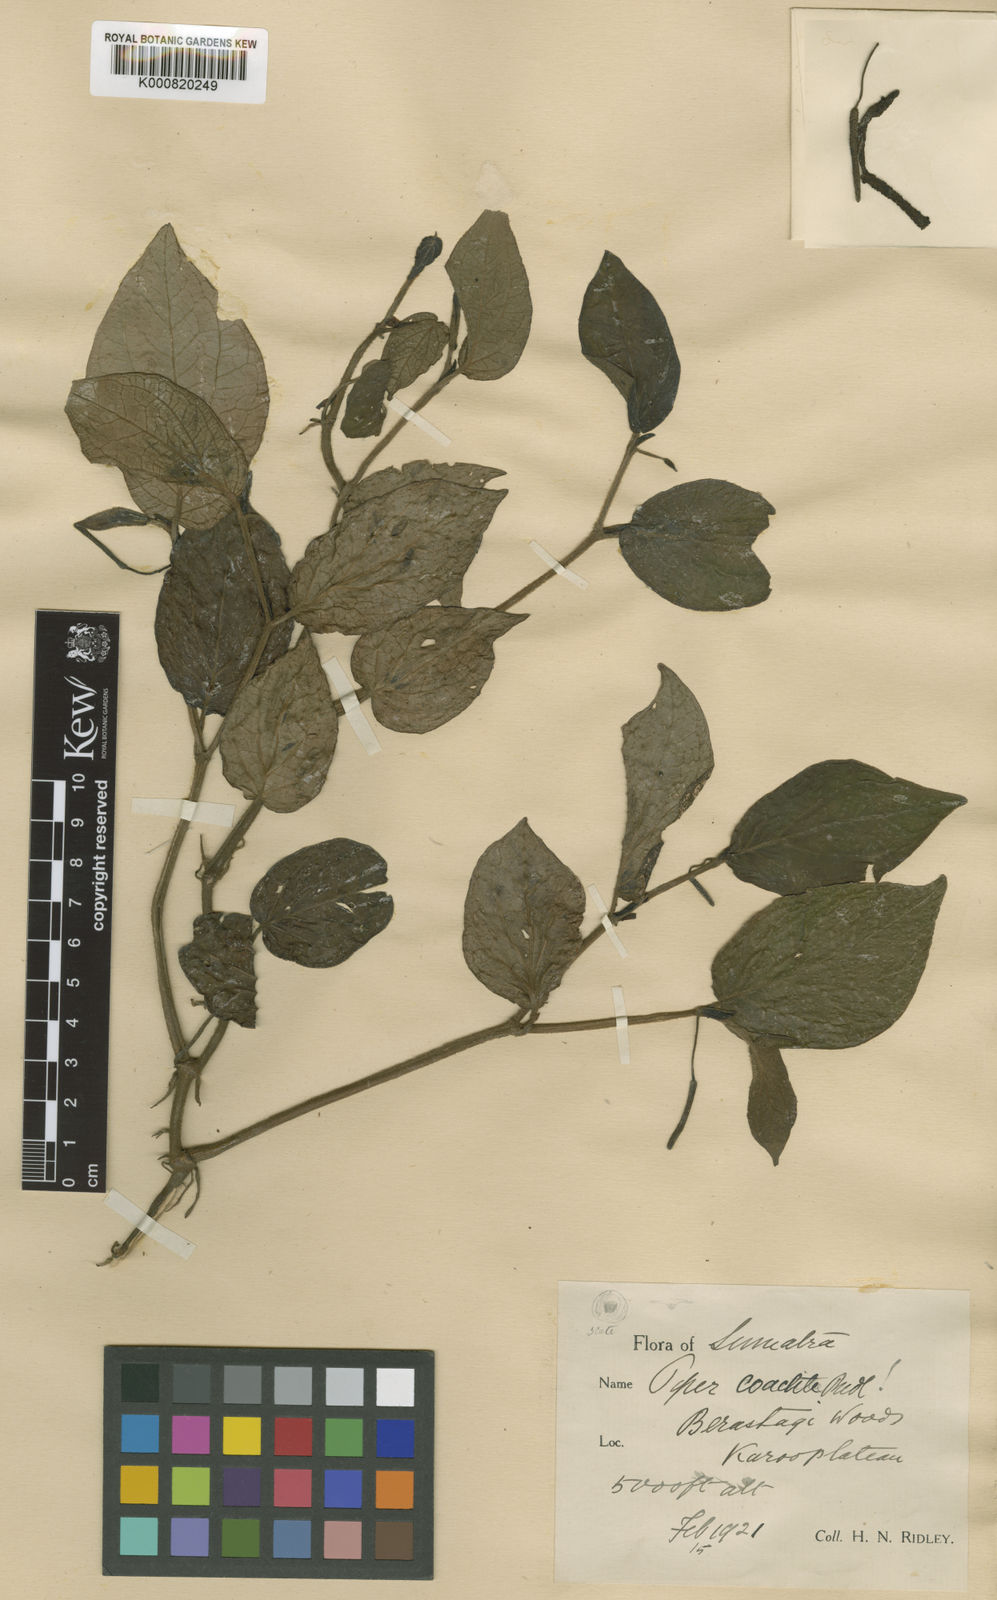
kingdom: Plantae
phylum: Tracheophyta
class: Magnoliopsida
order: Piperales
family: Piperaceae
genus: Piper
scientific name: Piper coactile
